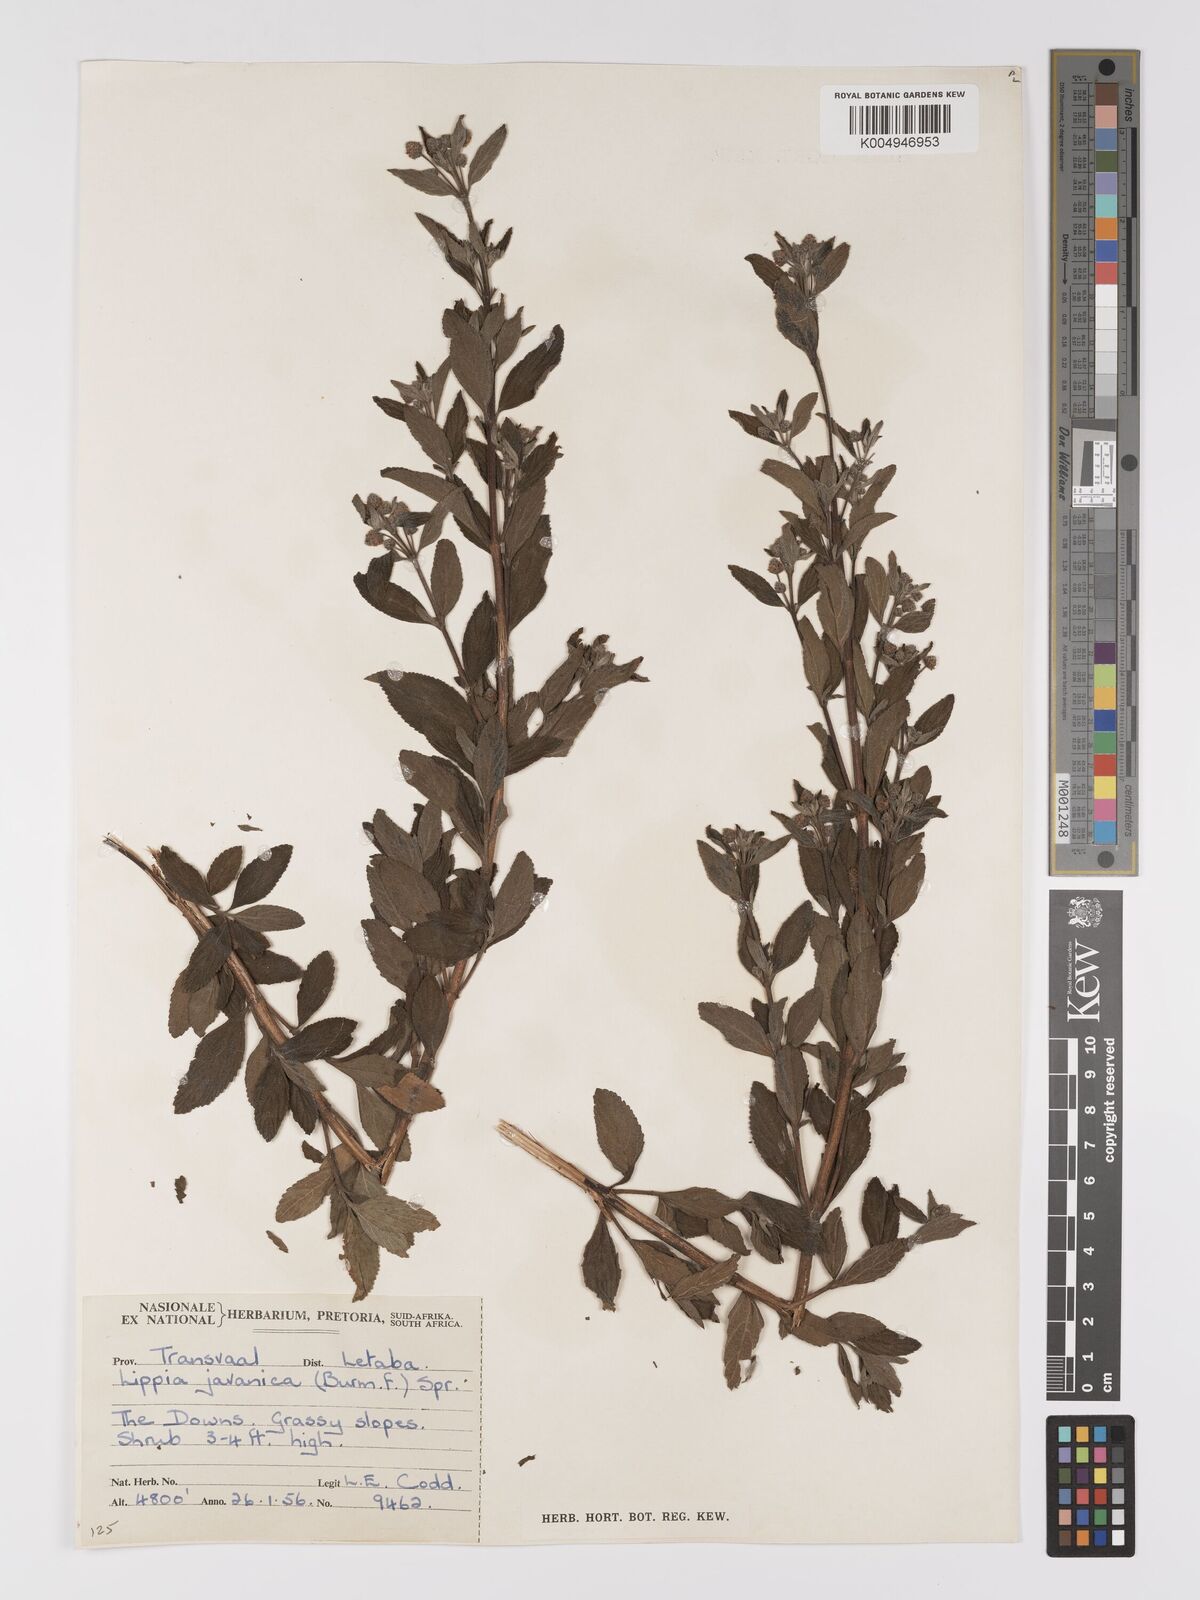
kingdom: Plantae
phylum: Tracheophyta
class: Magnoliopsida
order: Lamiales
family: Verbenaceae
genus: Lippia
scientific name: Lippia javanica
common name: Lemonbush
